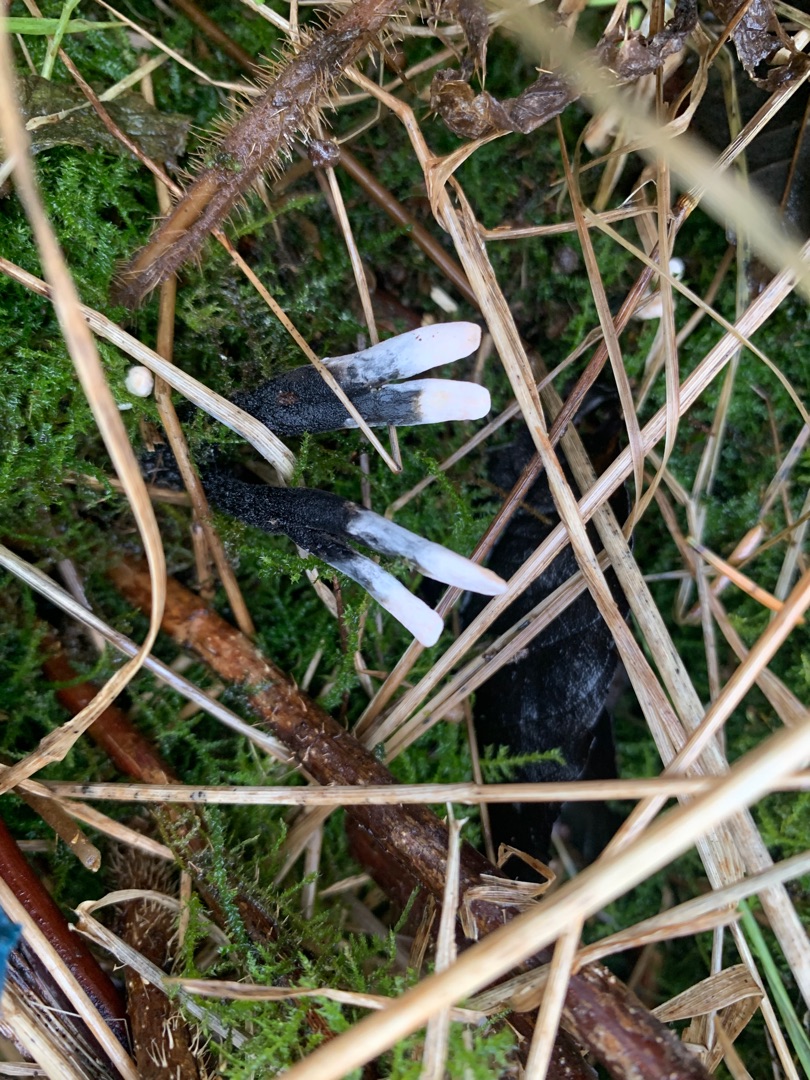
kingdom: Fungi
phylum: Ascomycota
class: Sordariomycetes
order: Xylariales
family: Xylariaceae
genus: Xylaria
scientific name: Xylaria hypoxylon
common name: Grenet stødsvamp
